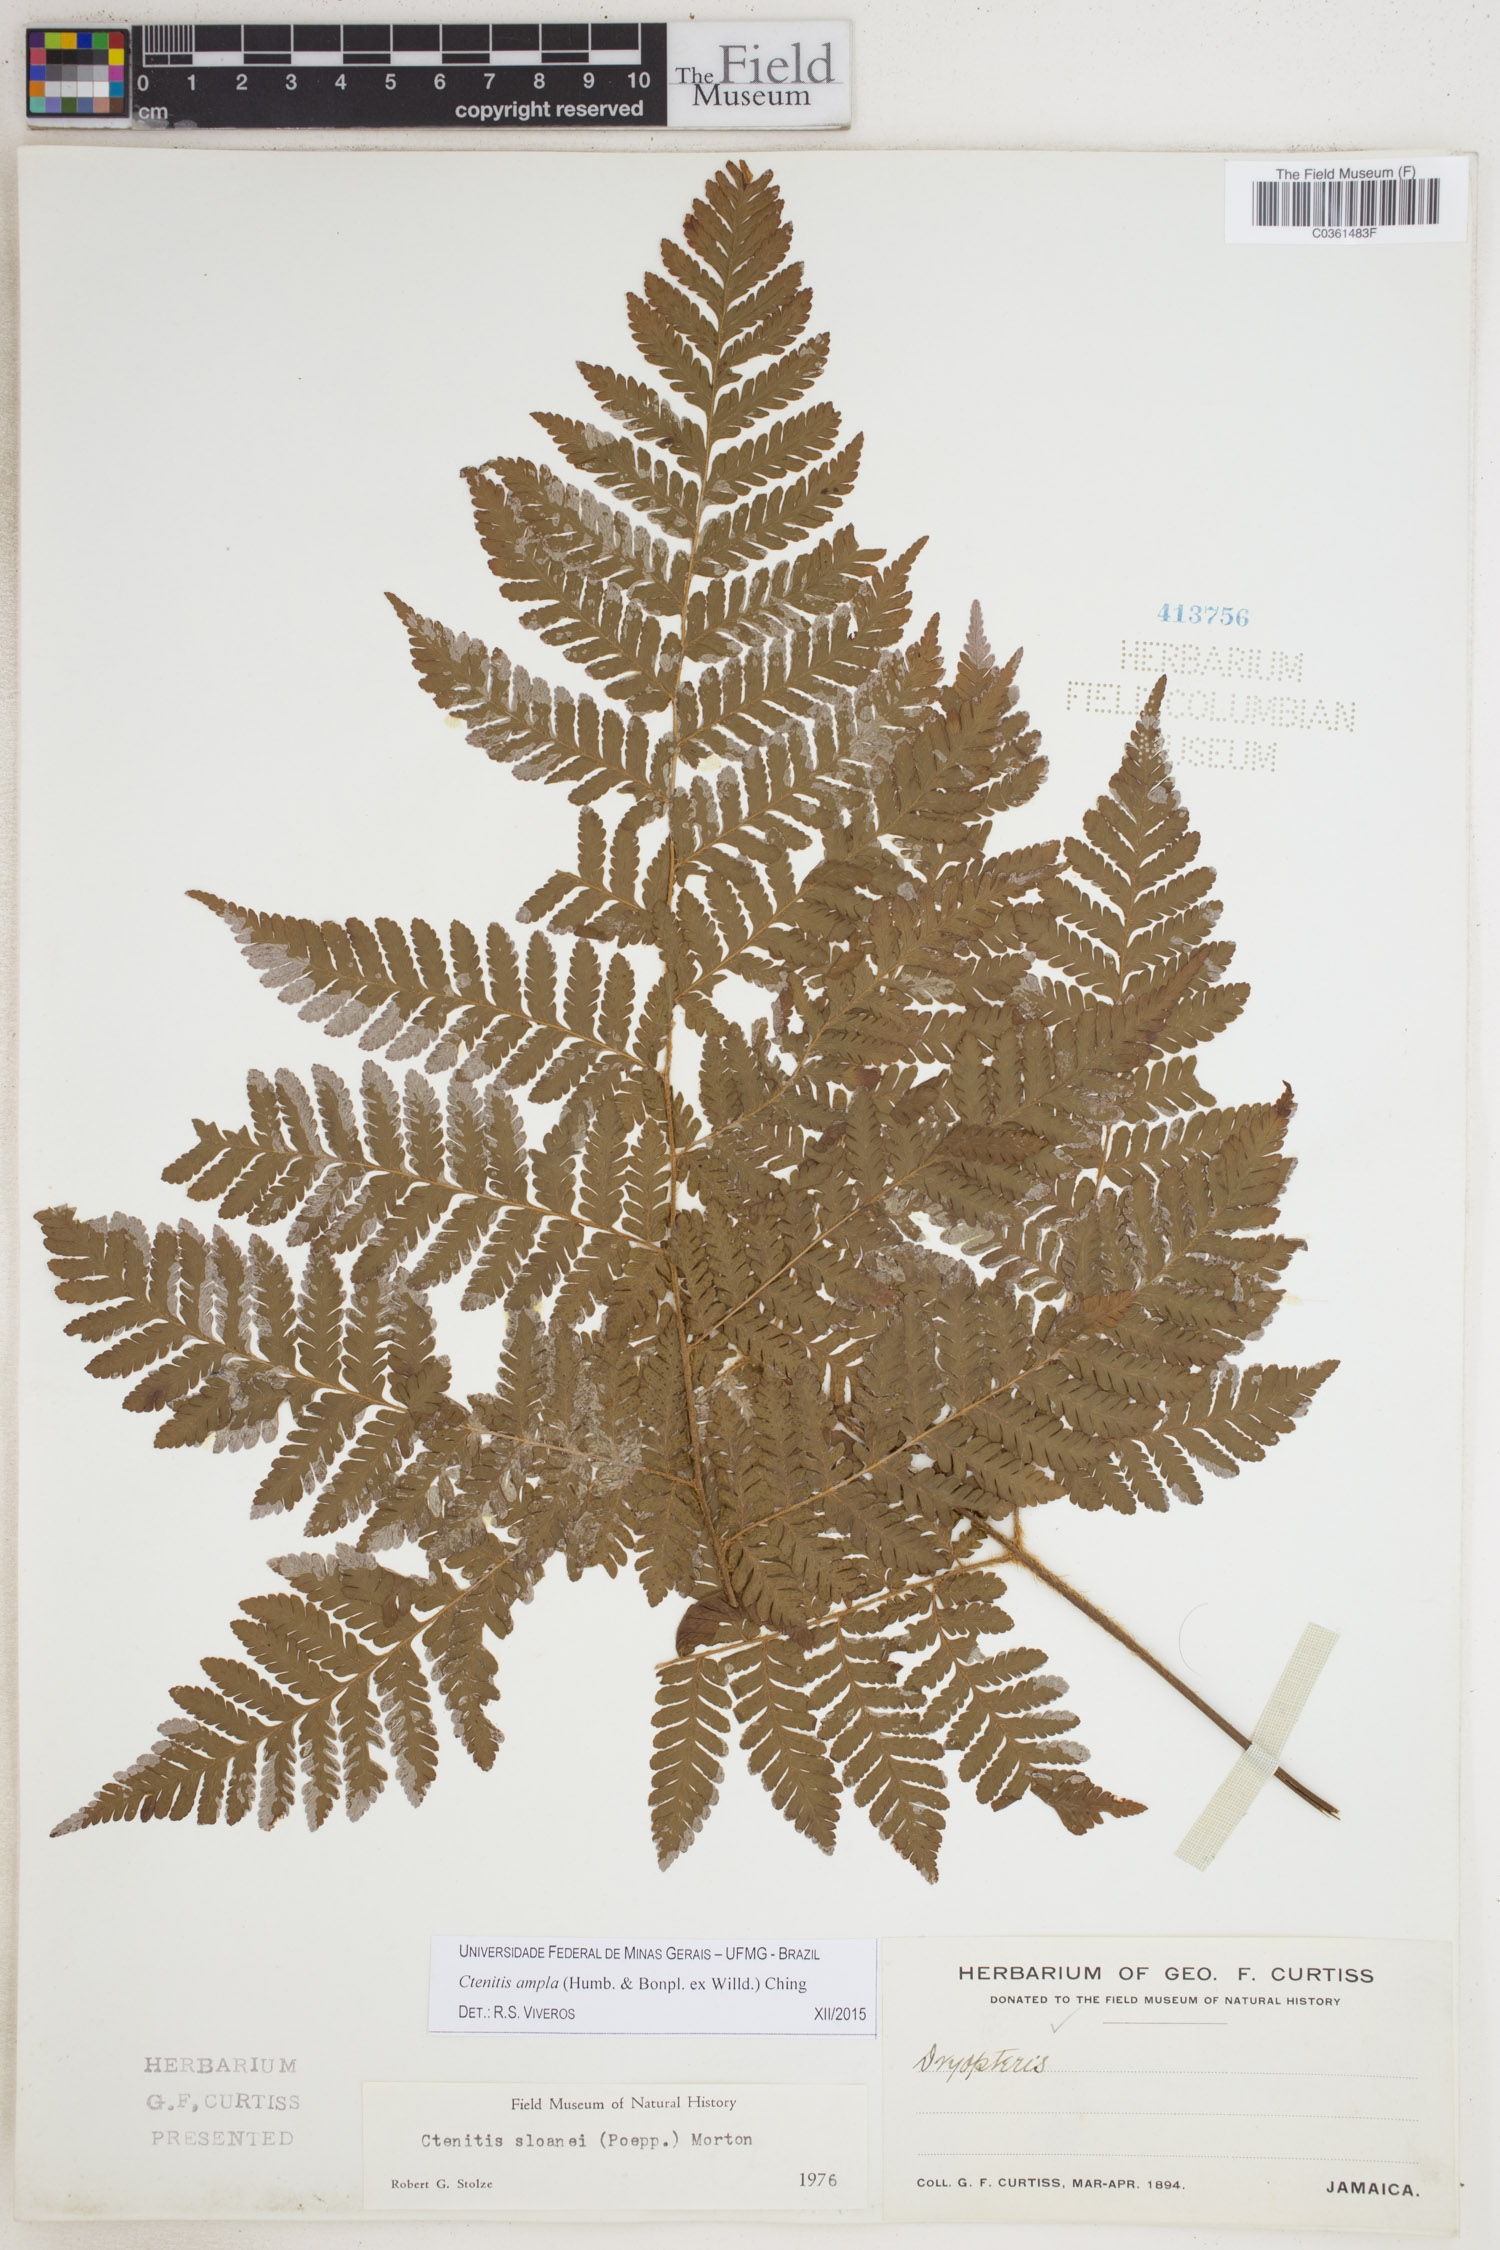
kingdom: Plantae
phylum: Tracheophyta
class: Polypodiopsida
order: Polypodiales
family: Dryopteridaceae
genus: Ctenitis
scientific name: Ctenitis sloanei
